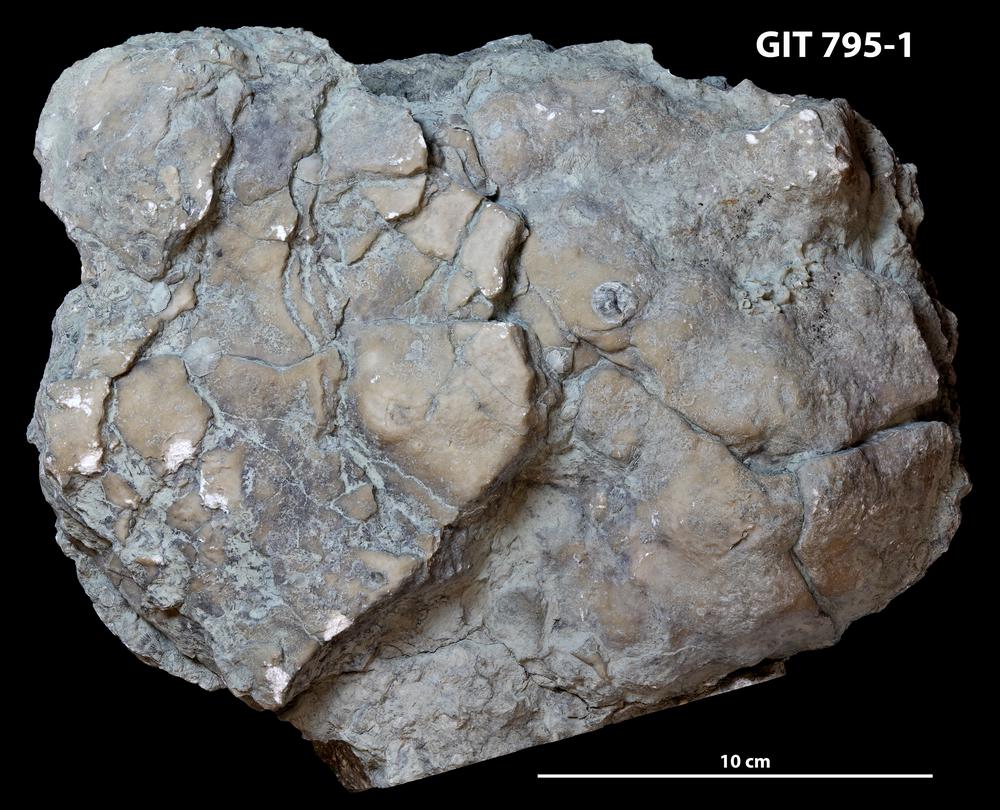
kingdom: Animalia
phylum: Porifera
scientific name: Porifera
